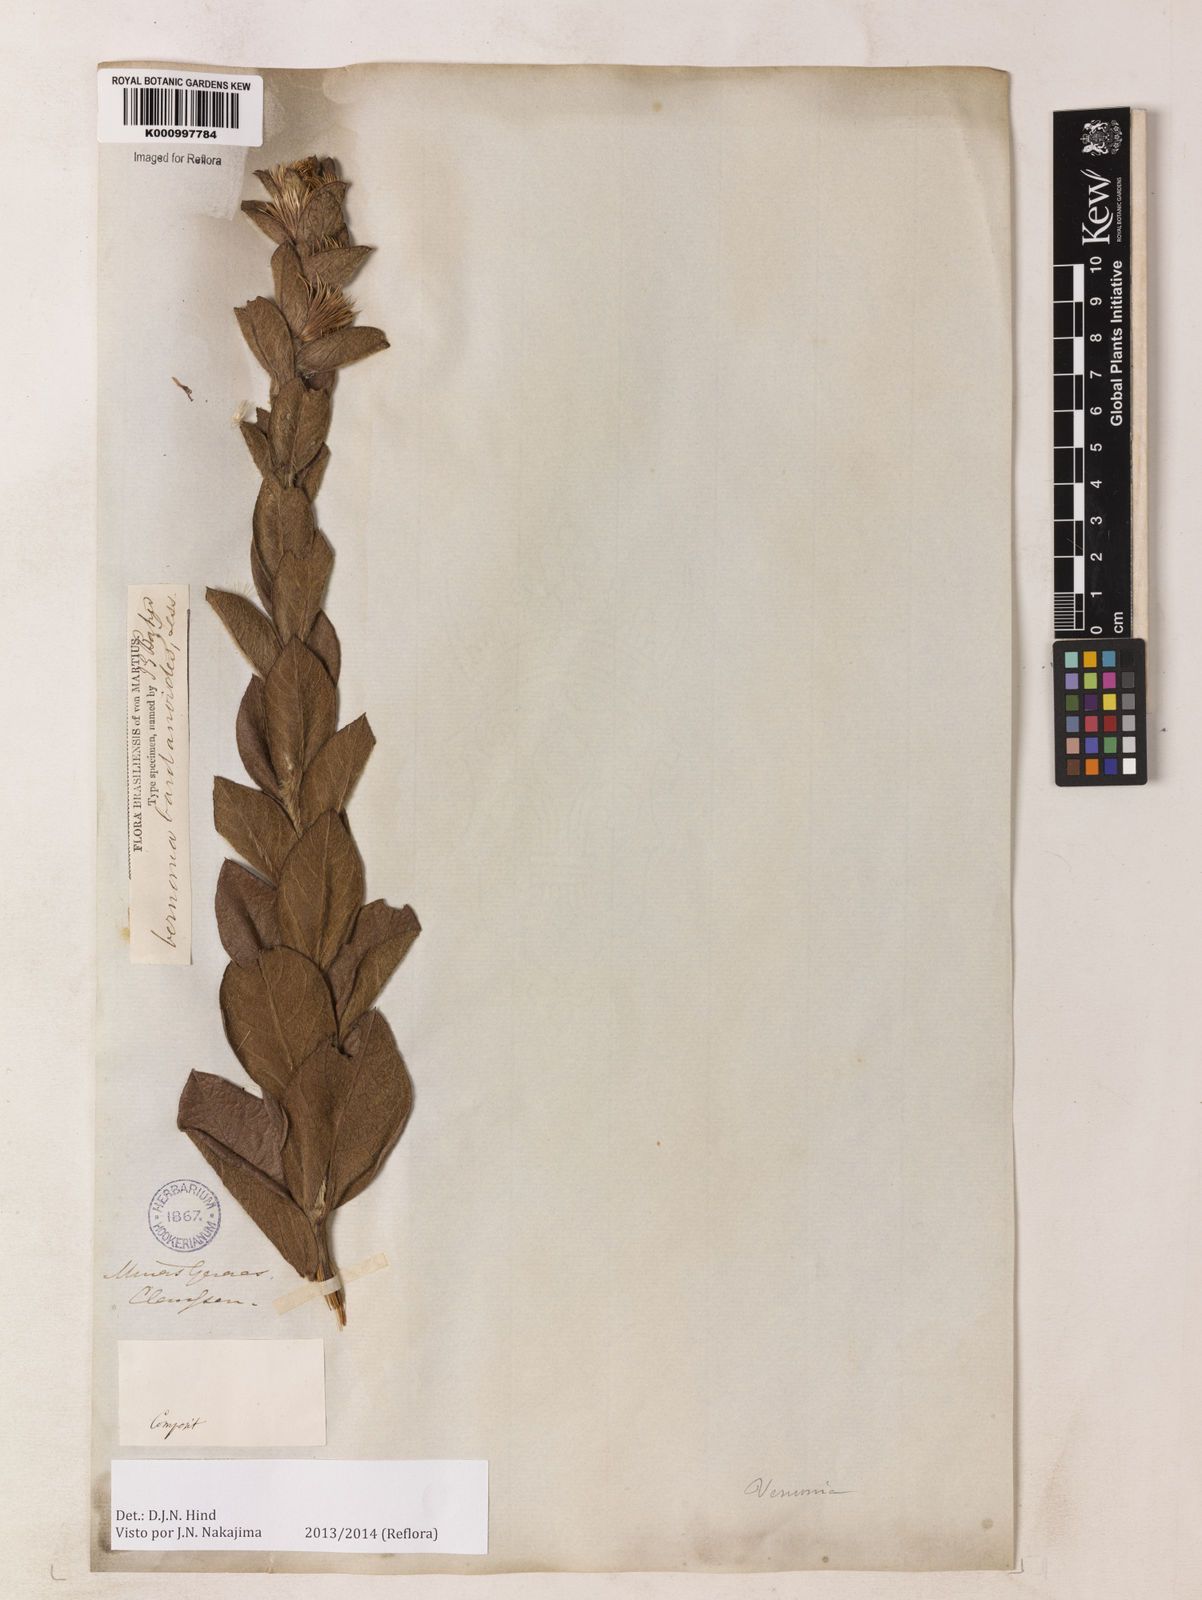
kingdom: Plantae
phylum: Tracheophyta
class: Magnoliopsida
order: Asterales
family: Asteraceae
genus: Lessingianthus
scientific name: Lessingianthus bardanioides
